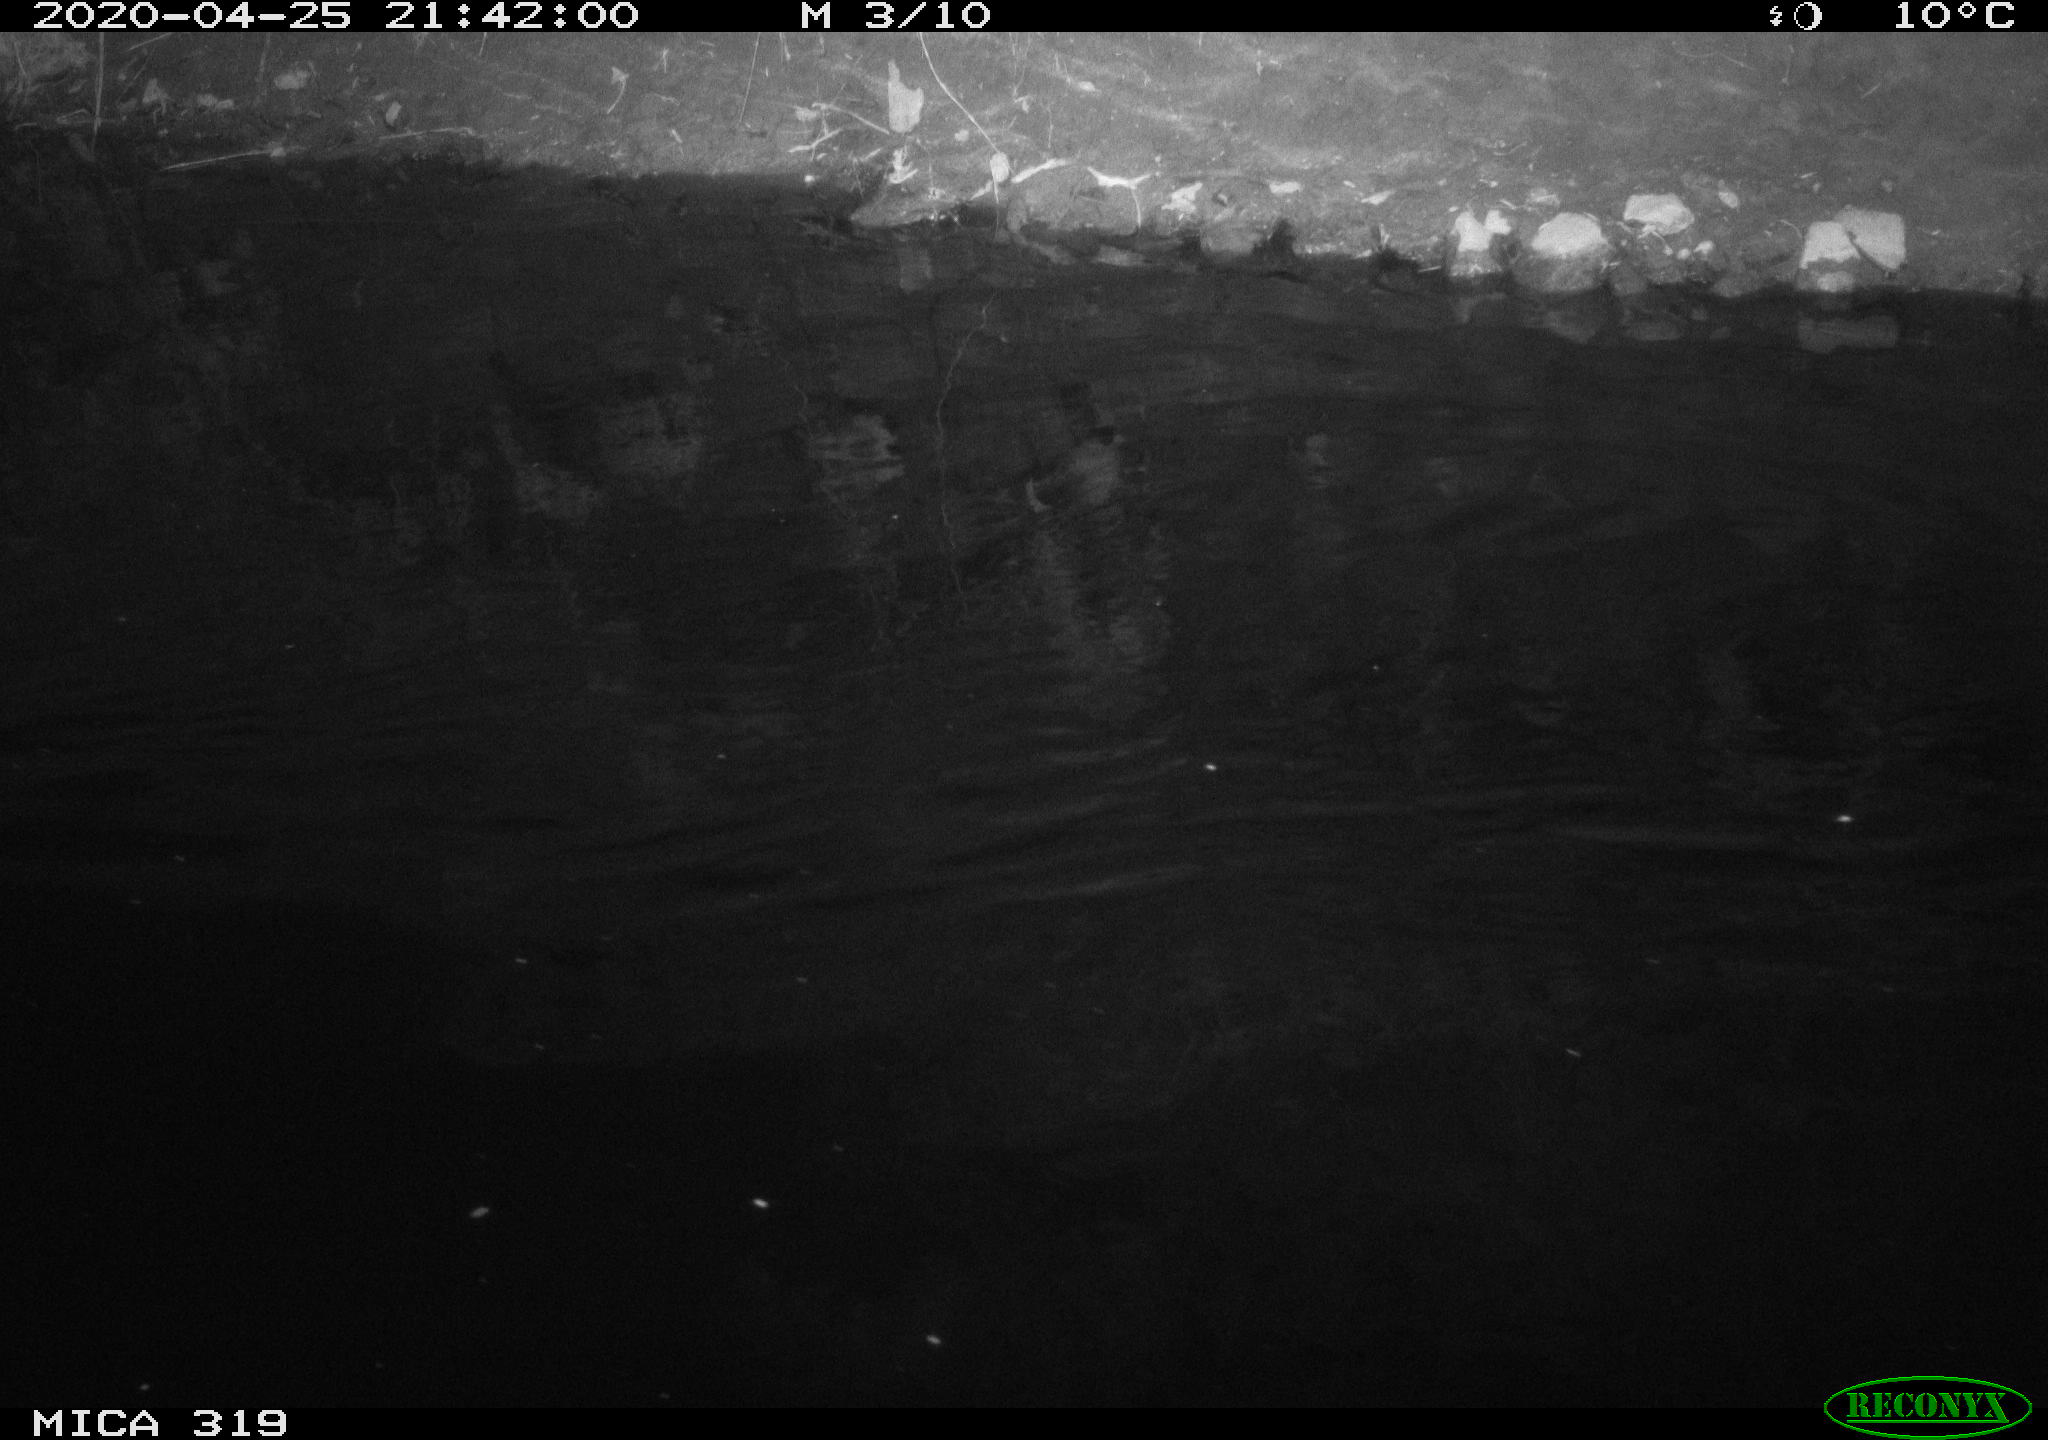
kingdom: Animalia
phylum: Chordata
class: Aves
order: Anseriformes
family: Anatidae
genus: Anas
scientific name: Anas platyrhynchos
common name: Mallard
